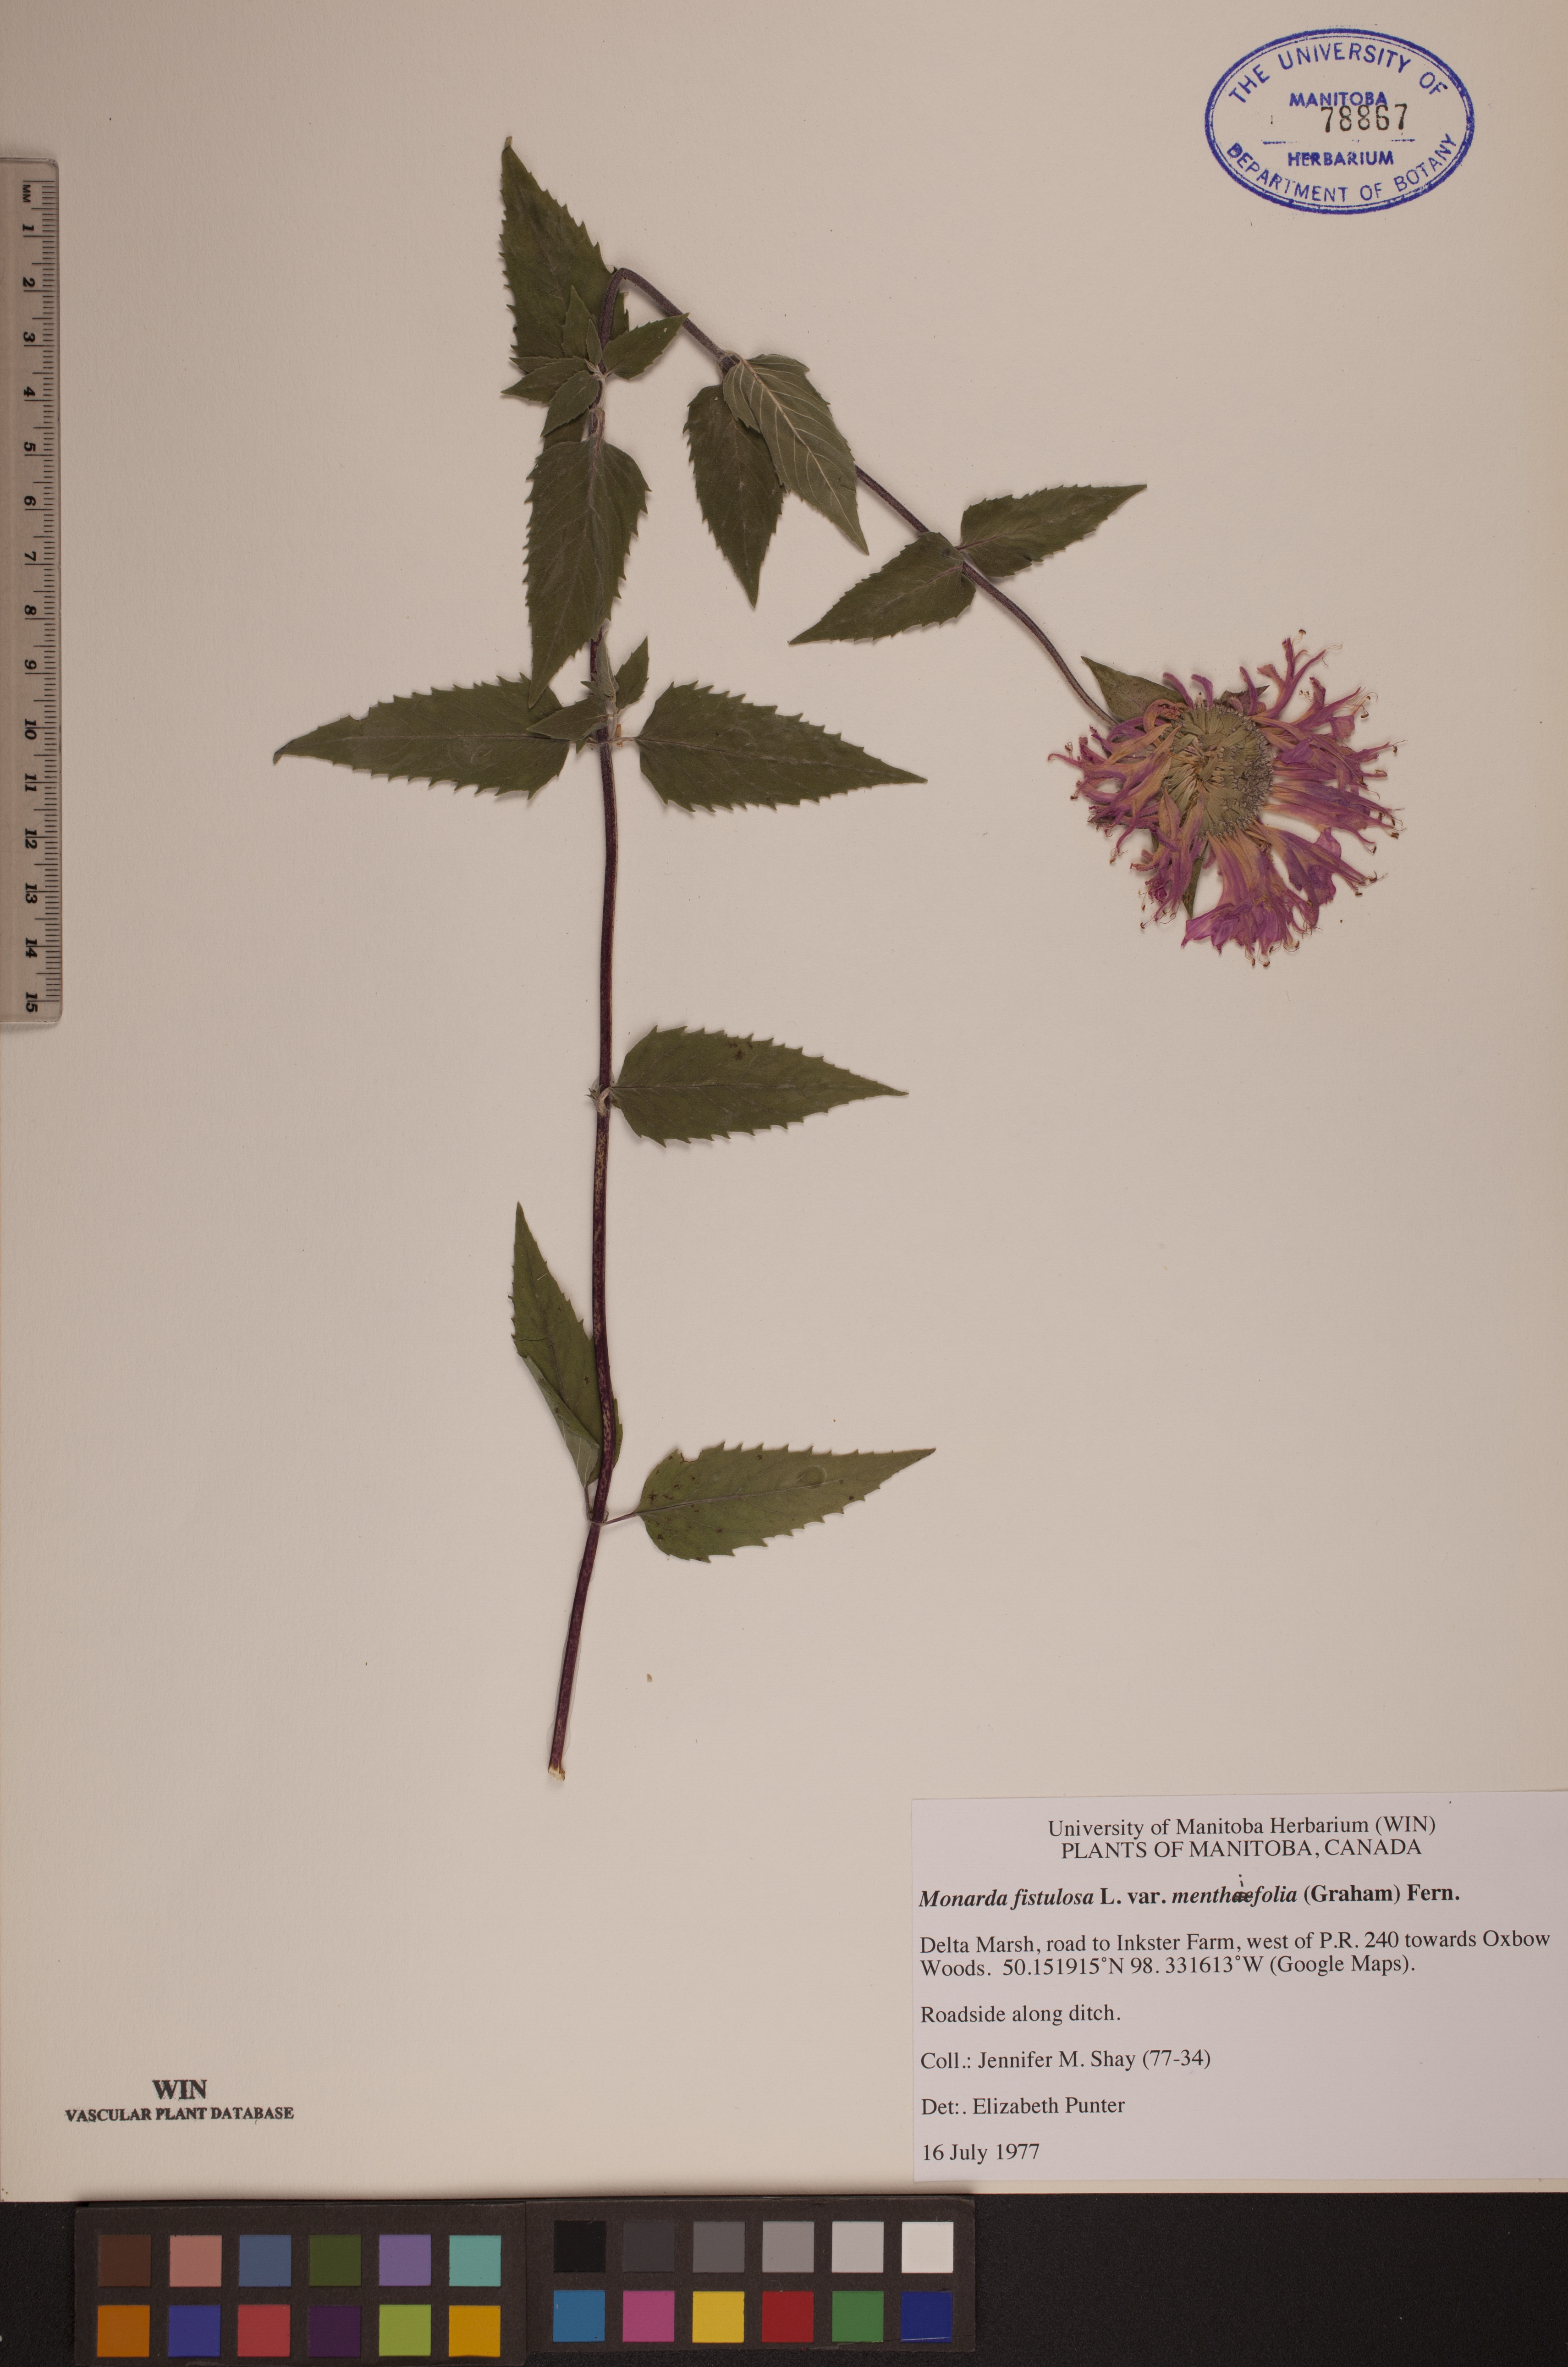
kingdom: Plantae
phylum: Tracheophyta
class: Magnoliopsida
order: Lamiales
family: Lamiaceae
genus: Monarda
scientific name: Monarda fistulosa
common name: Purple beebalm
